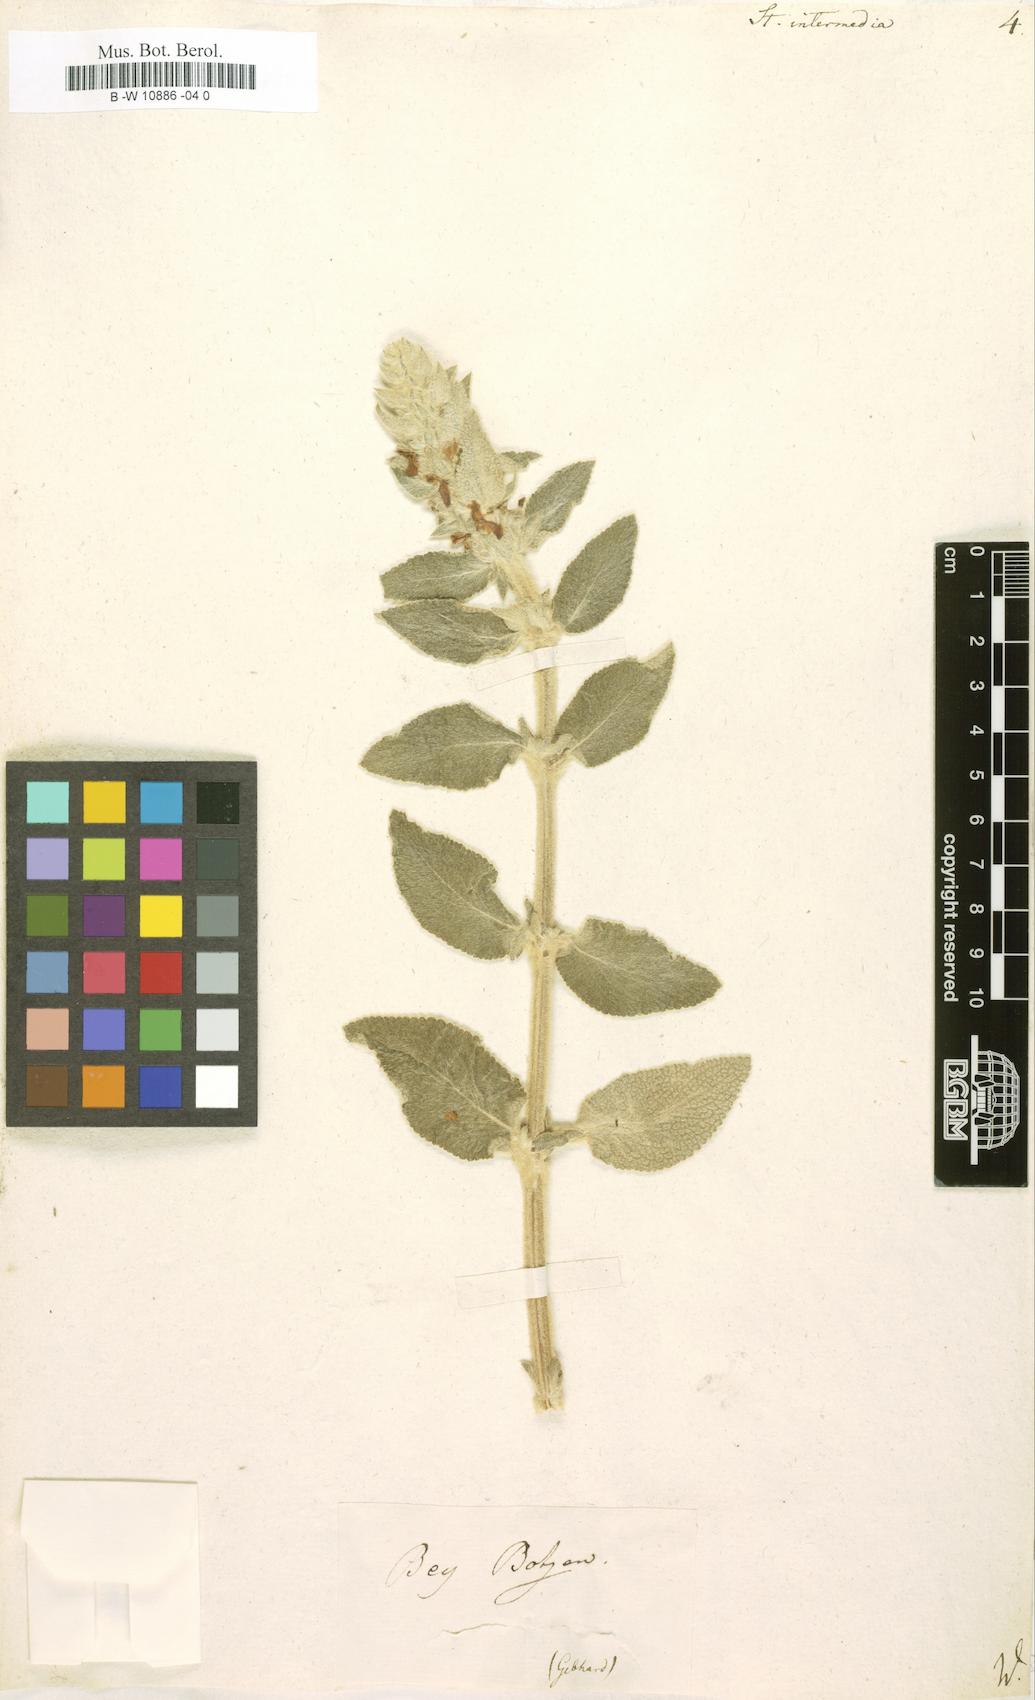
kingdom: Plantae
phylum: Tracheophyta
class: Magnoliopsida
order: Lamiales
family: Lamiaceae
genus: Stachys
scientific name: Stachys intermedia
